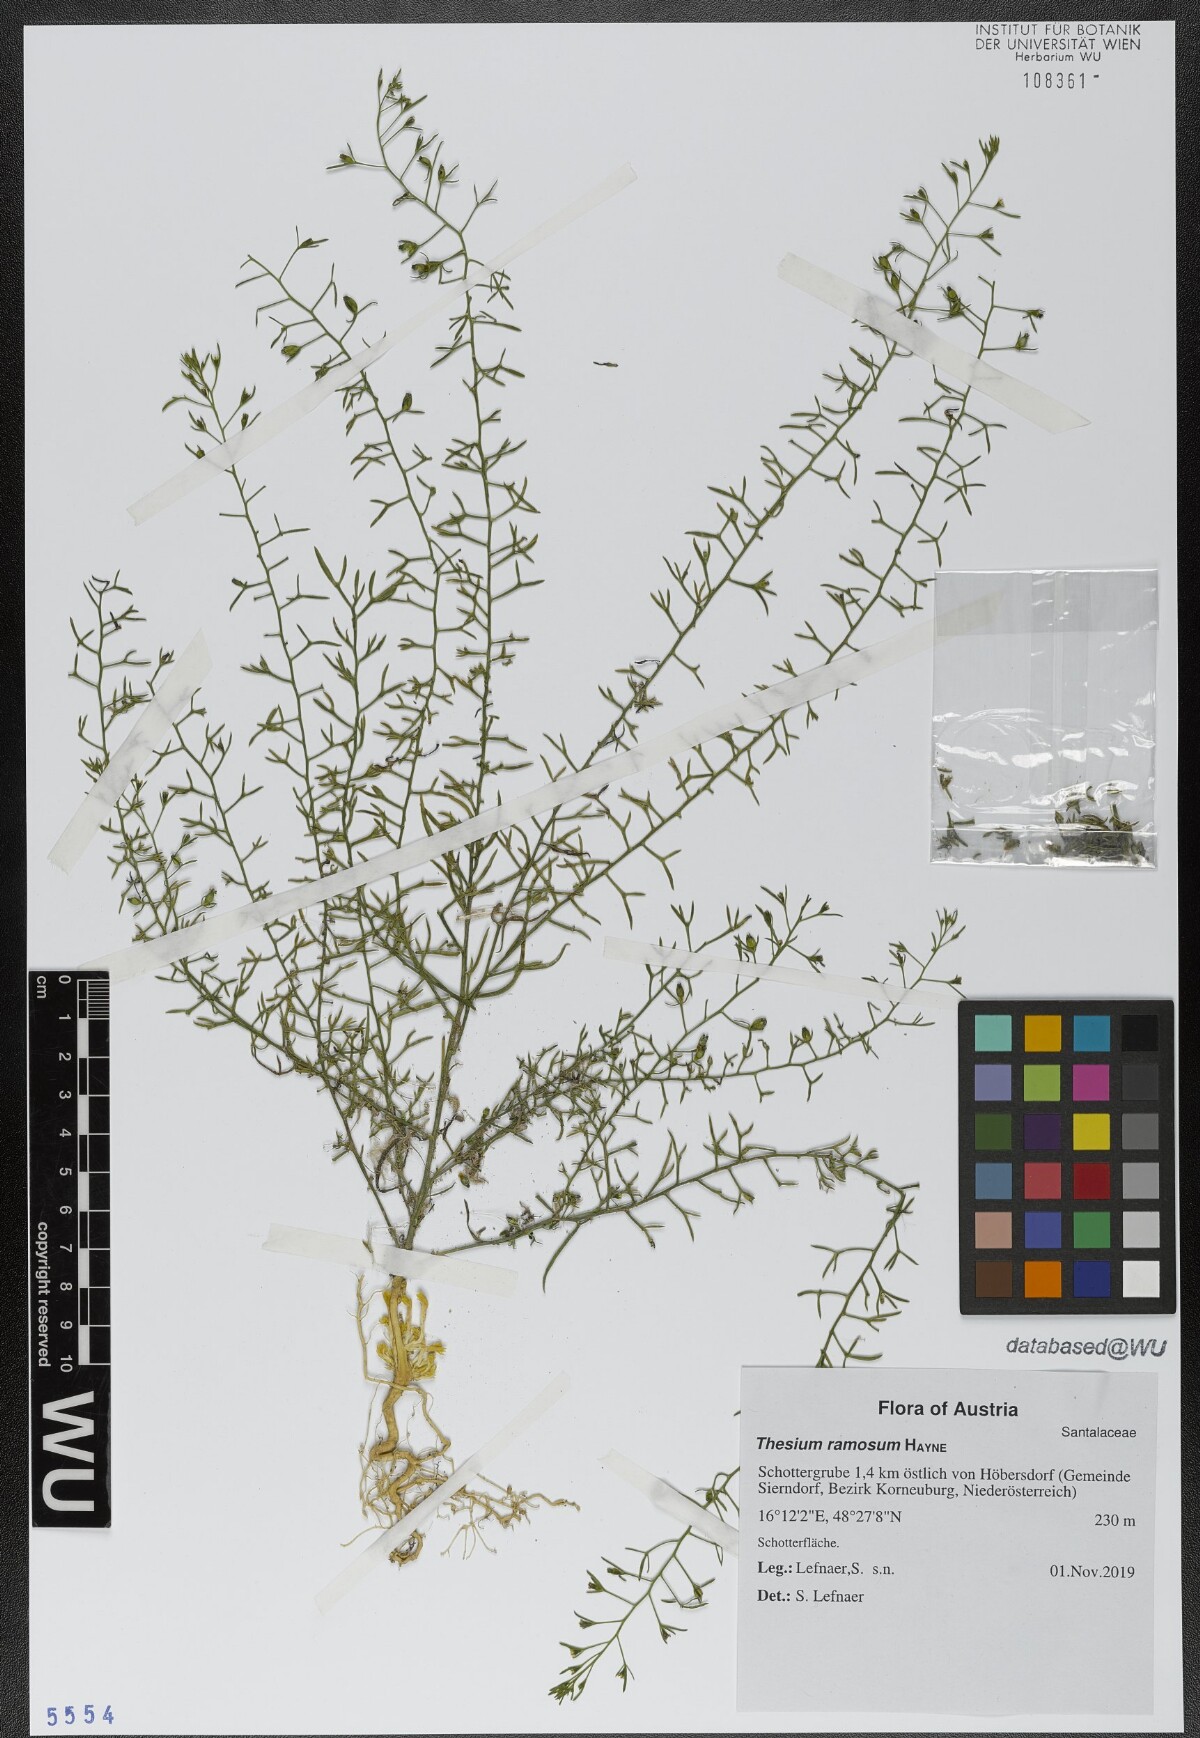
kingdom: Plantae
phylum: Tracheophyta
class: Magnoliopsida
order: Santalales
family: Thesiaceae
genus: Thesium
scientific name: Thesium ramosum
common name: Field thesium
